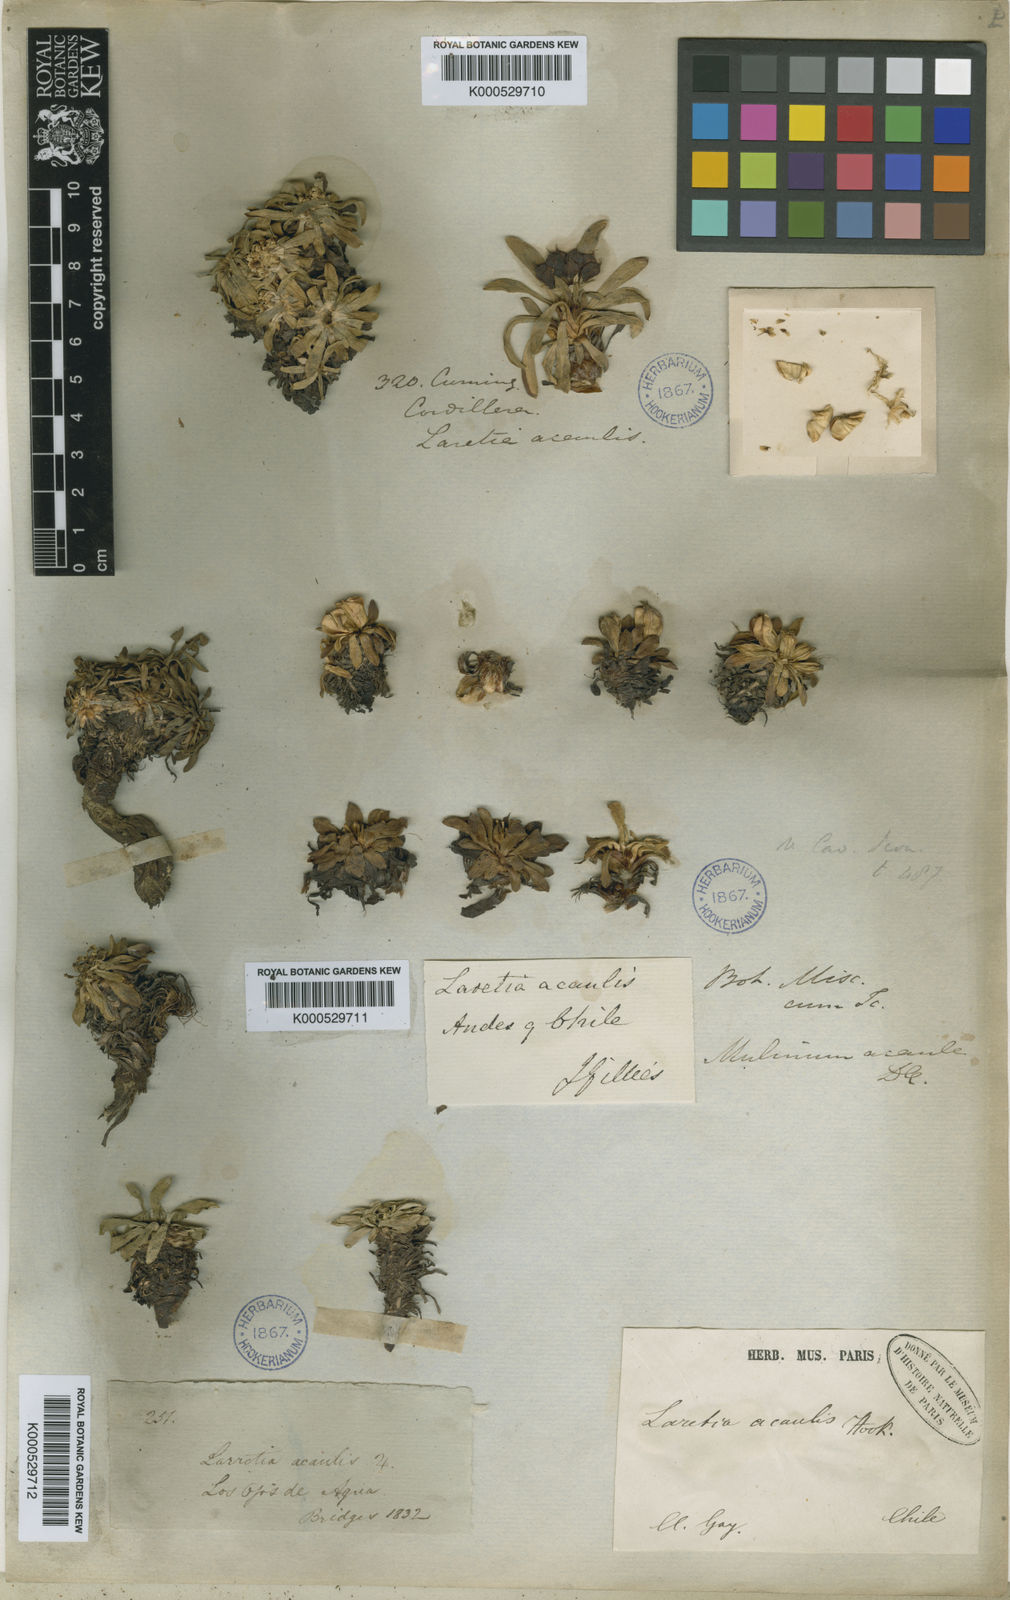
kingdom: Plantae
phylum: Tracheophyta
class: Magnoliopsida
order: Apiales
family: Apiaceae
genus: Azorella
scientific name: Azorella
